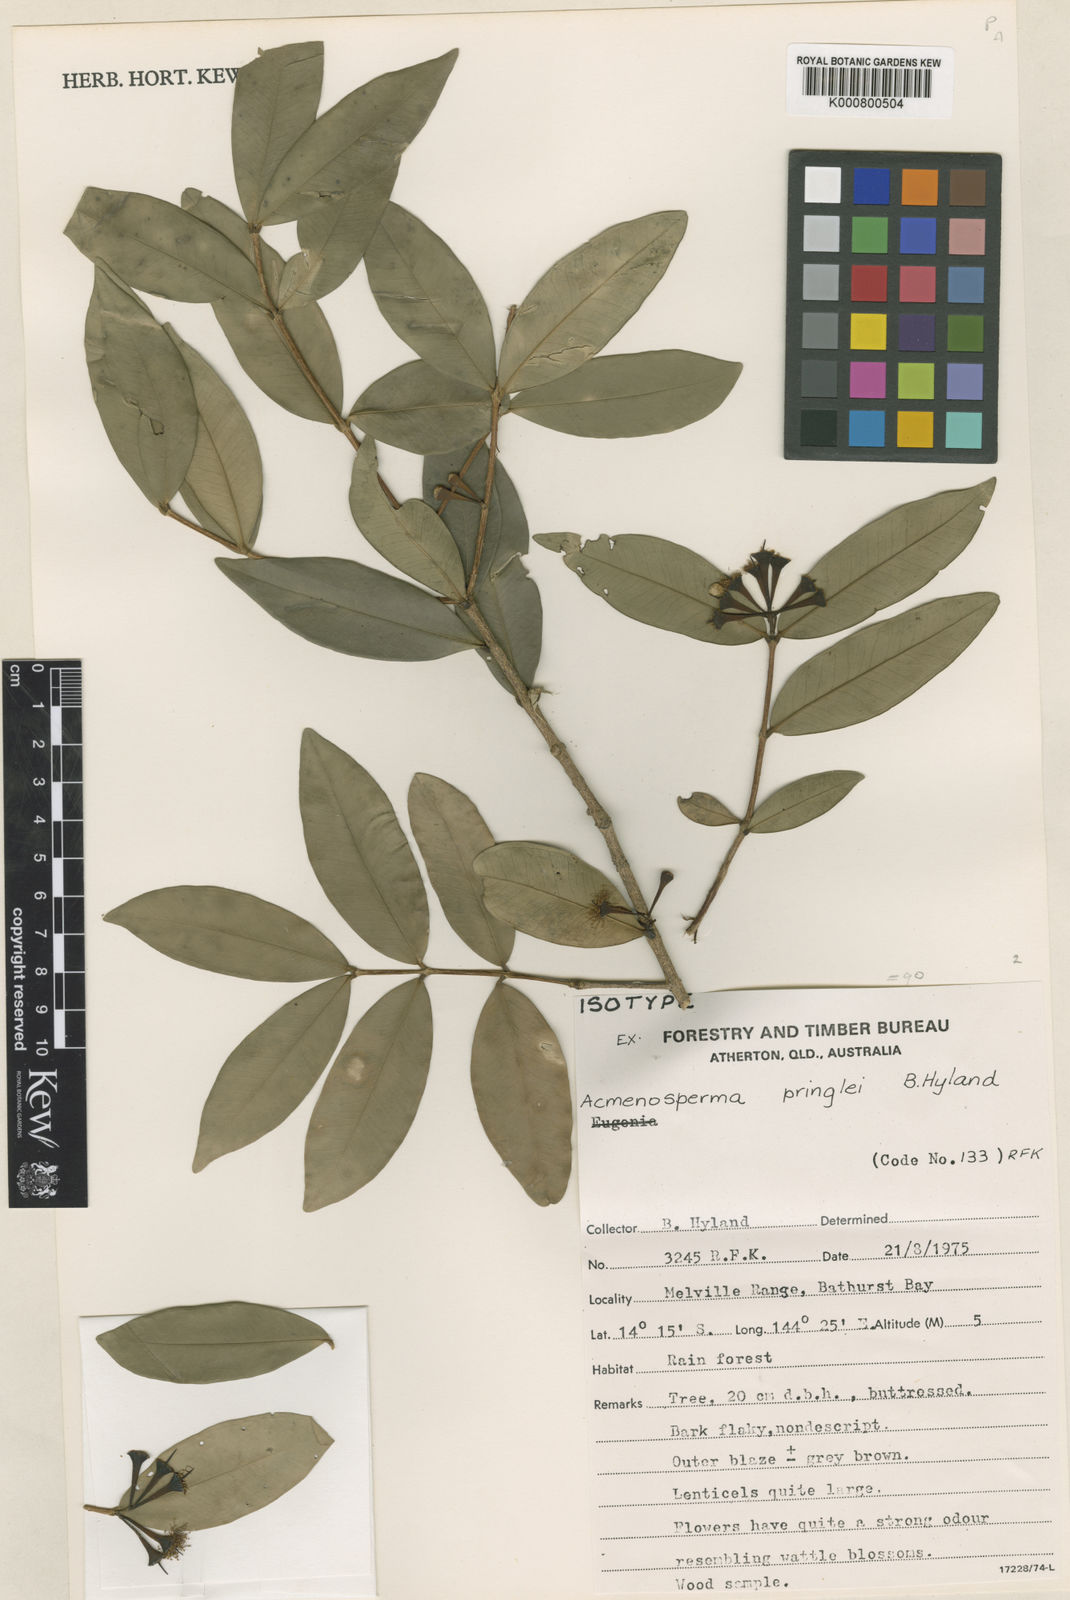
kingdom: Plantae
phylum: Tracheophyta
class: Magnoliopsida
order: Myrtales
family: Myrtaceae
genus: Syzygium
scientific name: Syzygium pringlei
